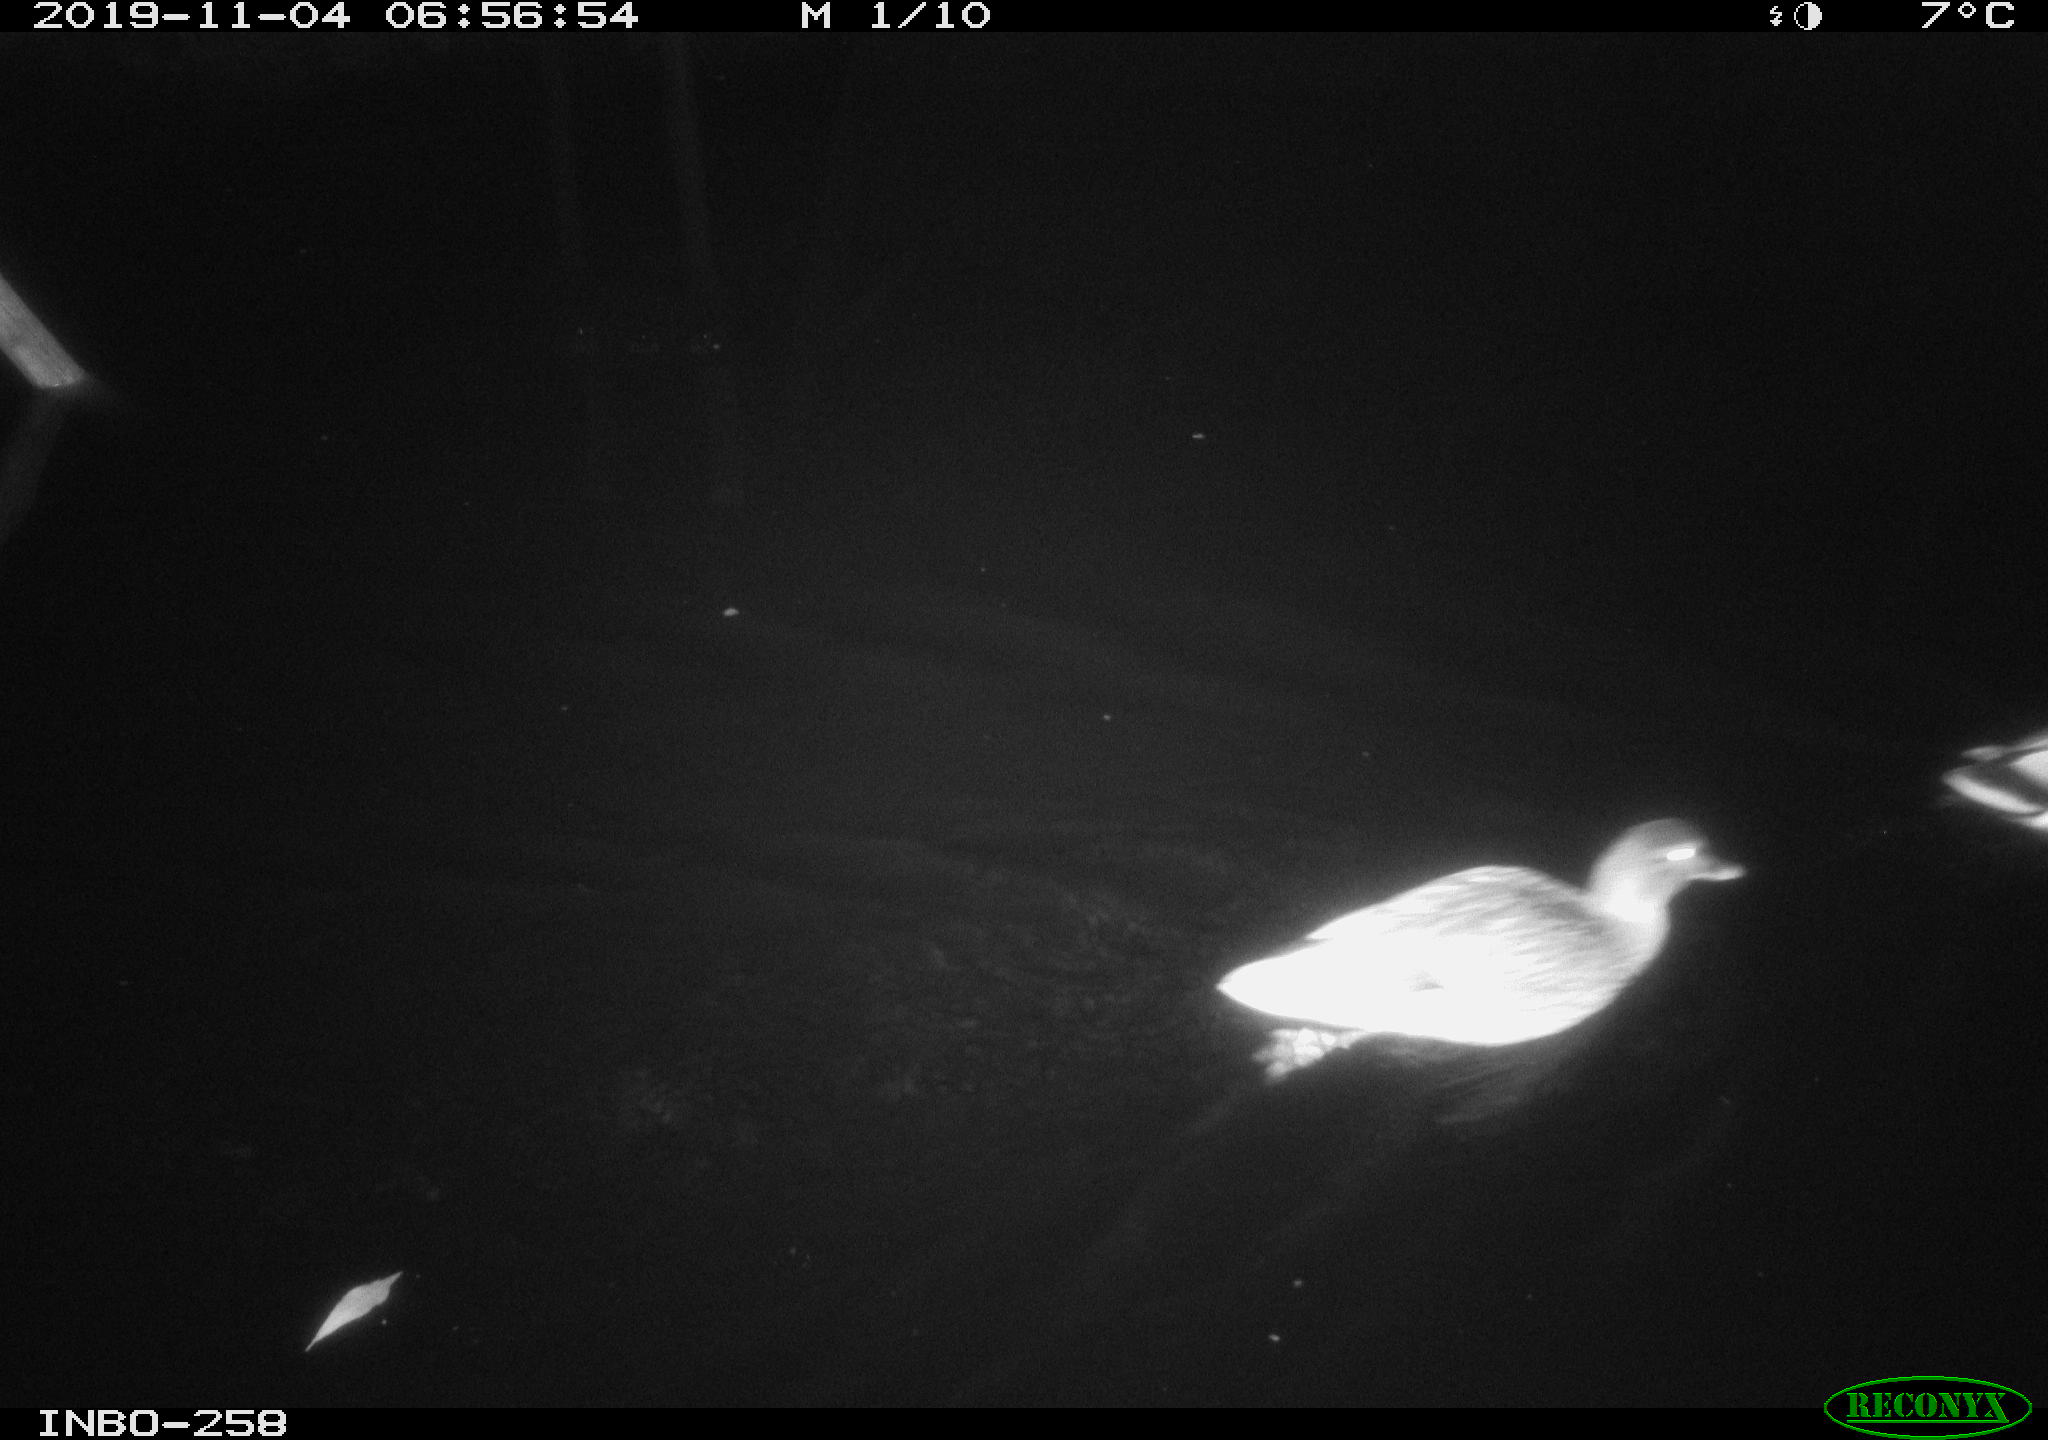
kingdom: Animalia
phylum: Chordata
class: Aves
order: Anseriformes
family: Anatidae
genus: Anas
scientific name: Anas platyrhynchos
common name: Mallard
